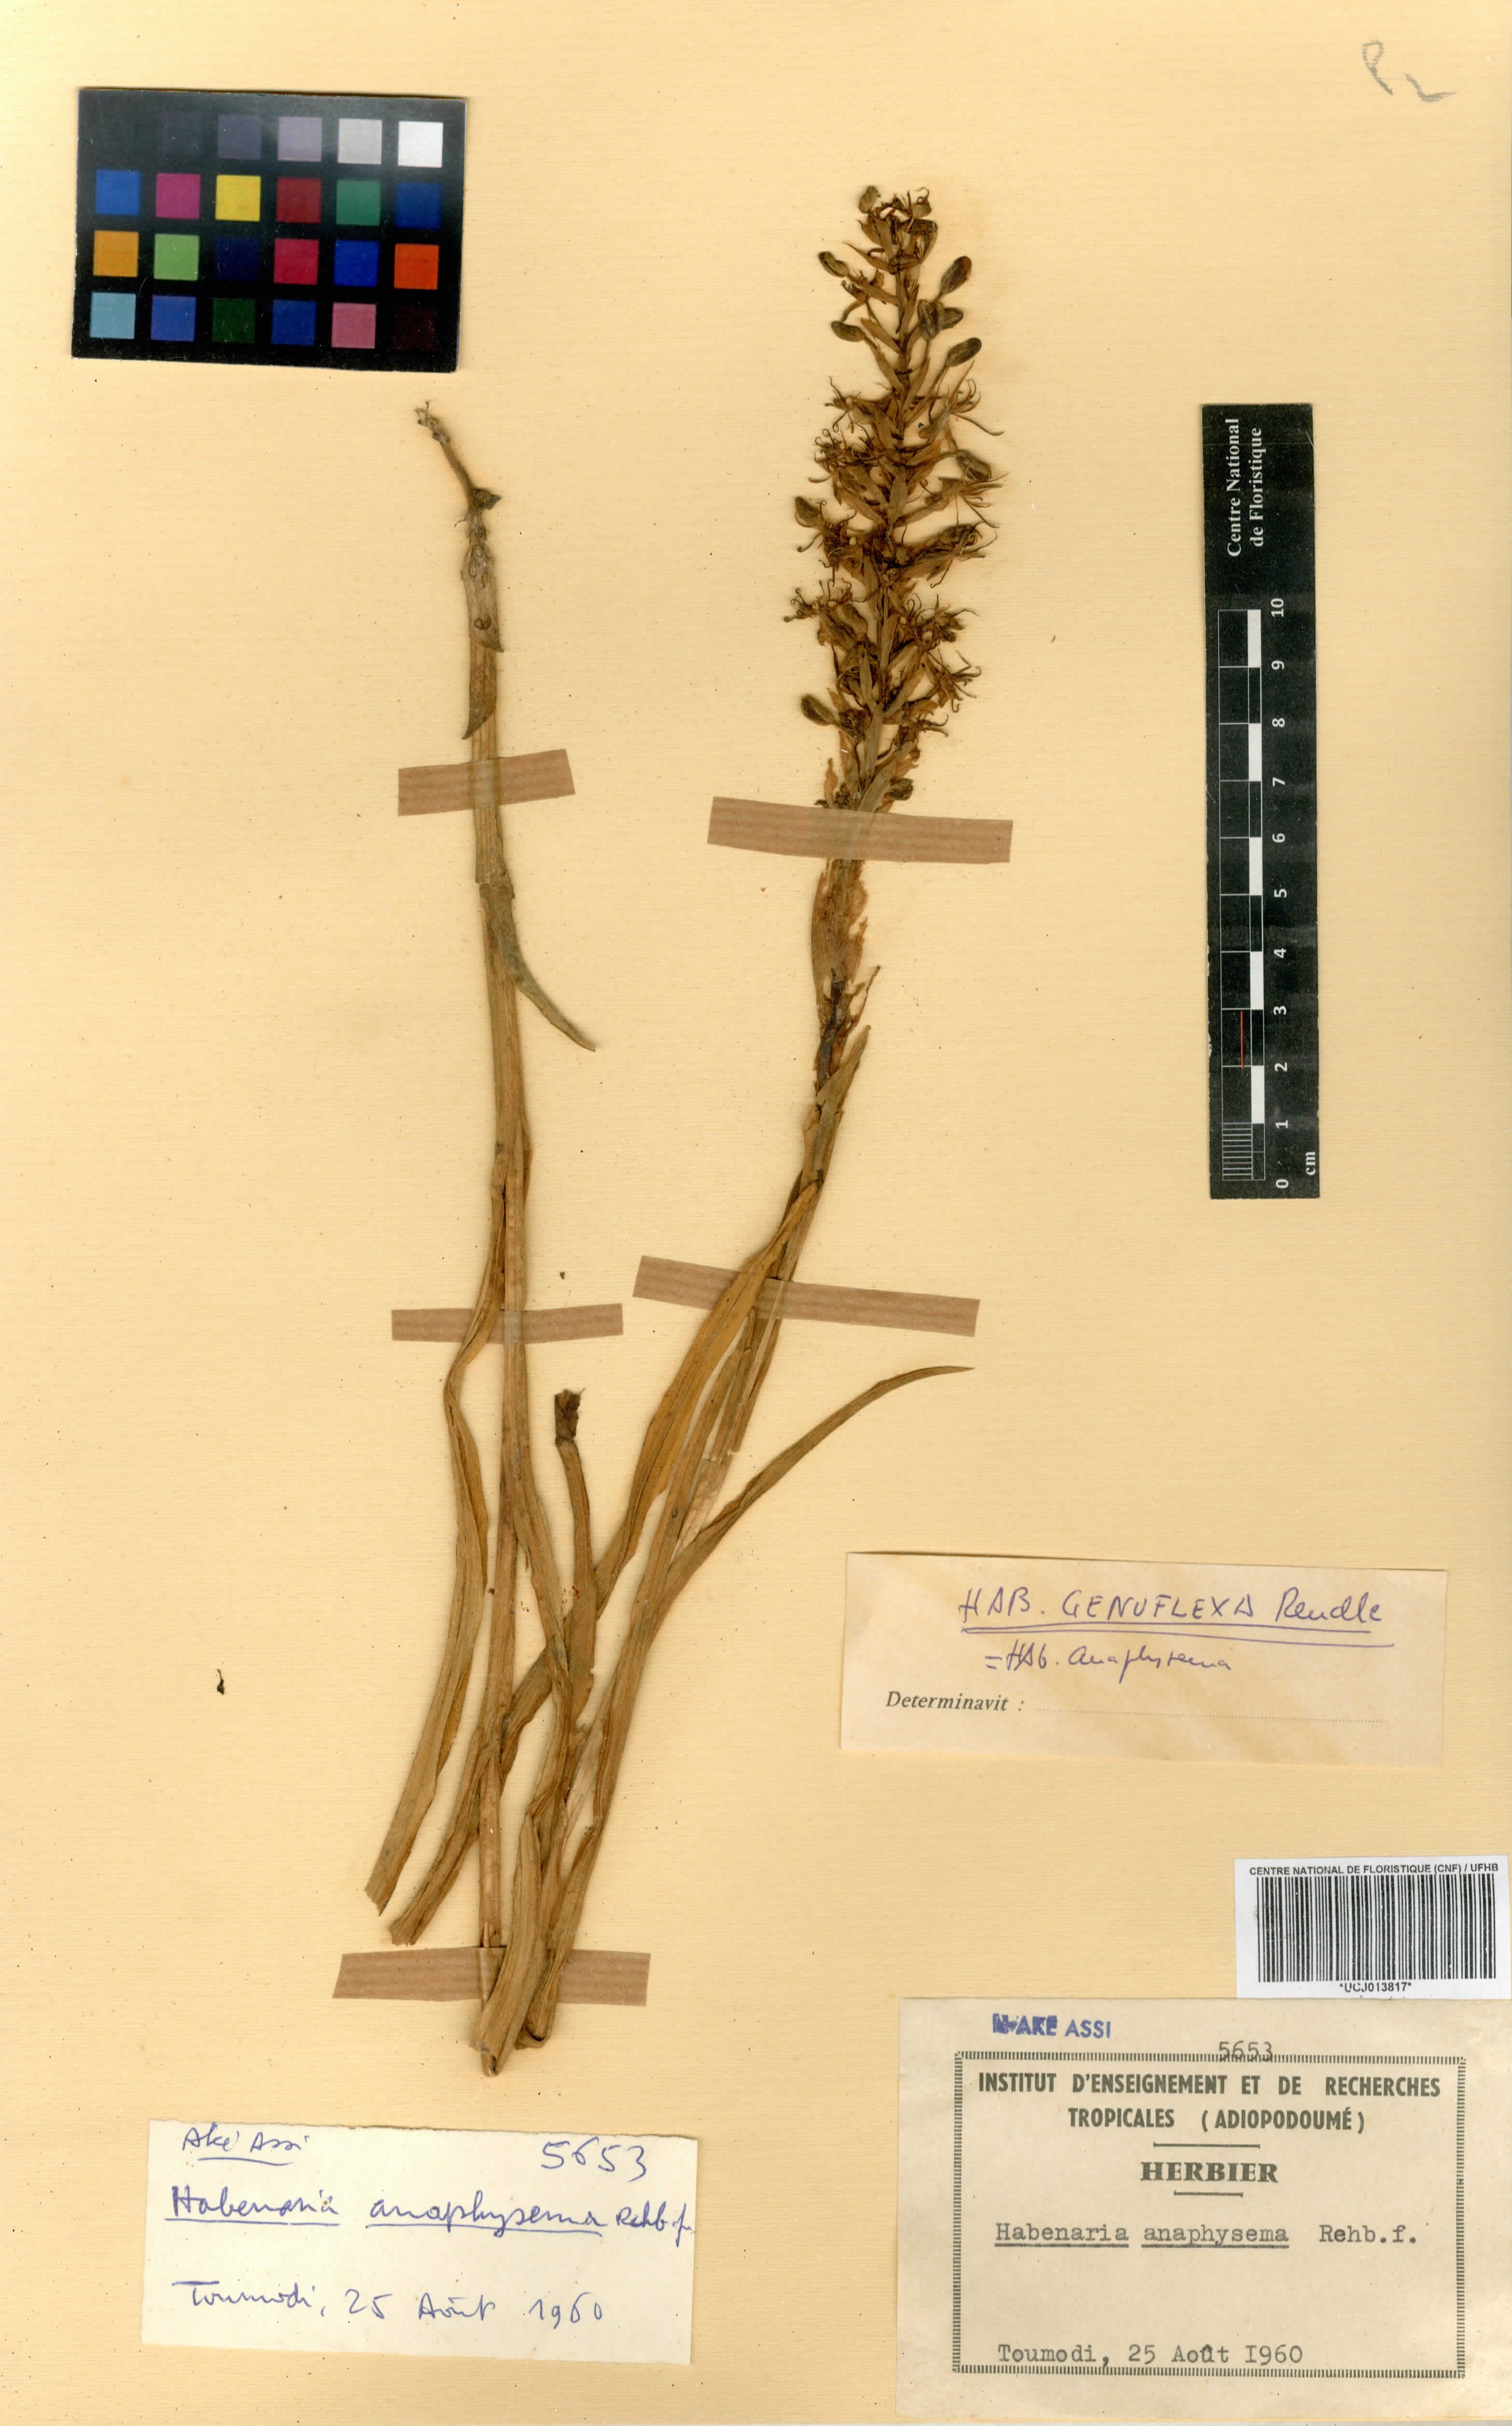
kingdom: Plantae
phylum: Tracheophyta
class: Liliopsida
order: Asparagales
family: Orchidaceae
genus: Habenaria
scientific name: Habenaria anaphysema
